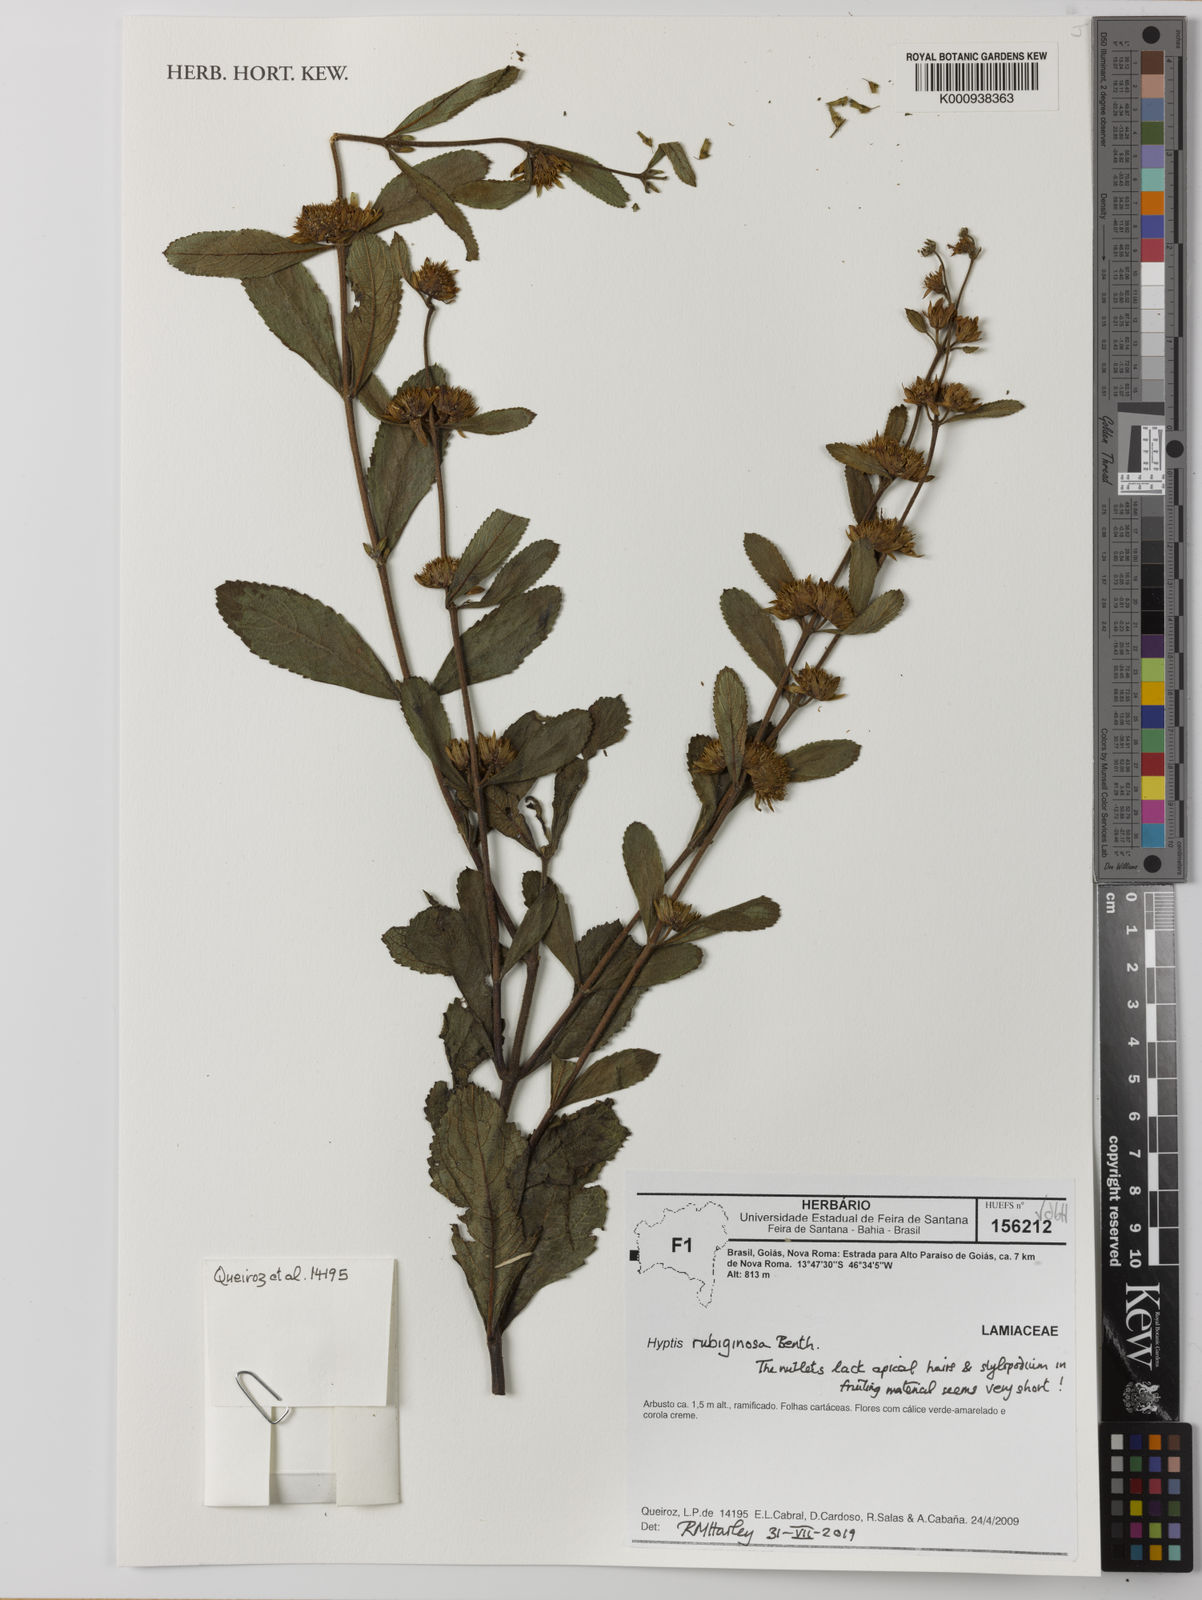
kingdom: Plantae
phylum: Tracheophyta
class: Magnoliopsida
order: Lamiales
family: Lamiaceae
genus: Hyptis
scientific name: Hyptis rubiginosa
